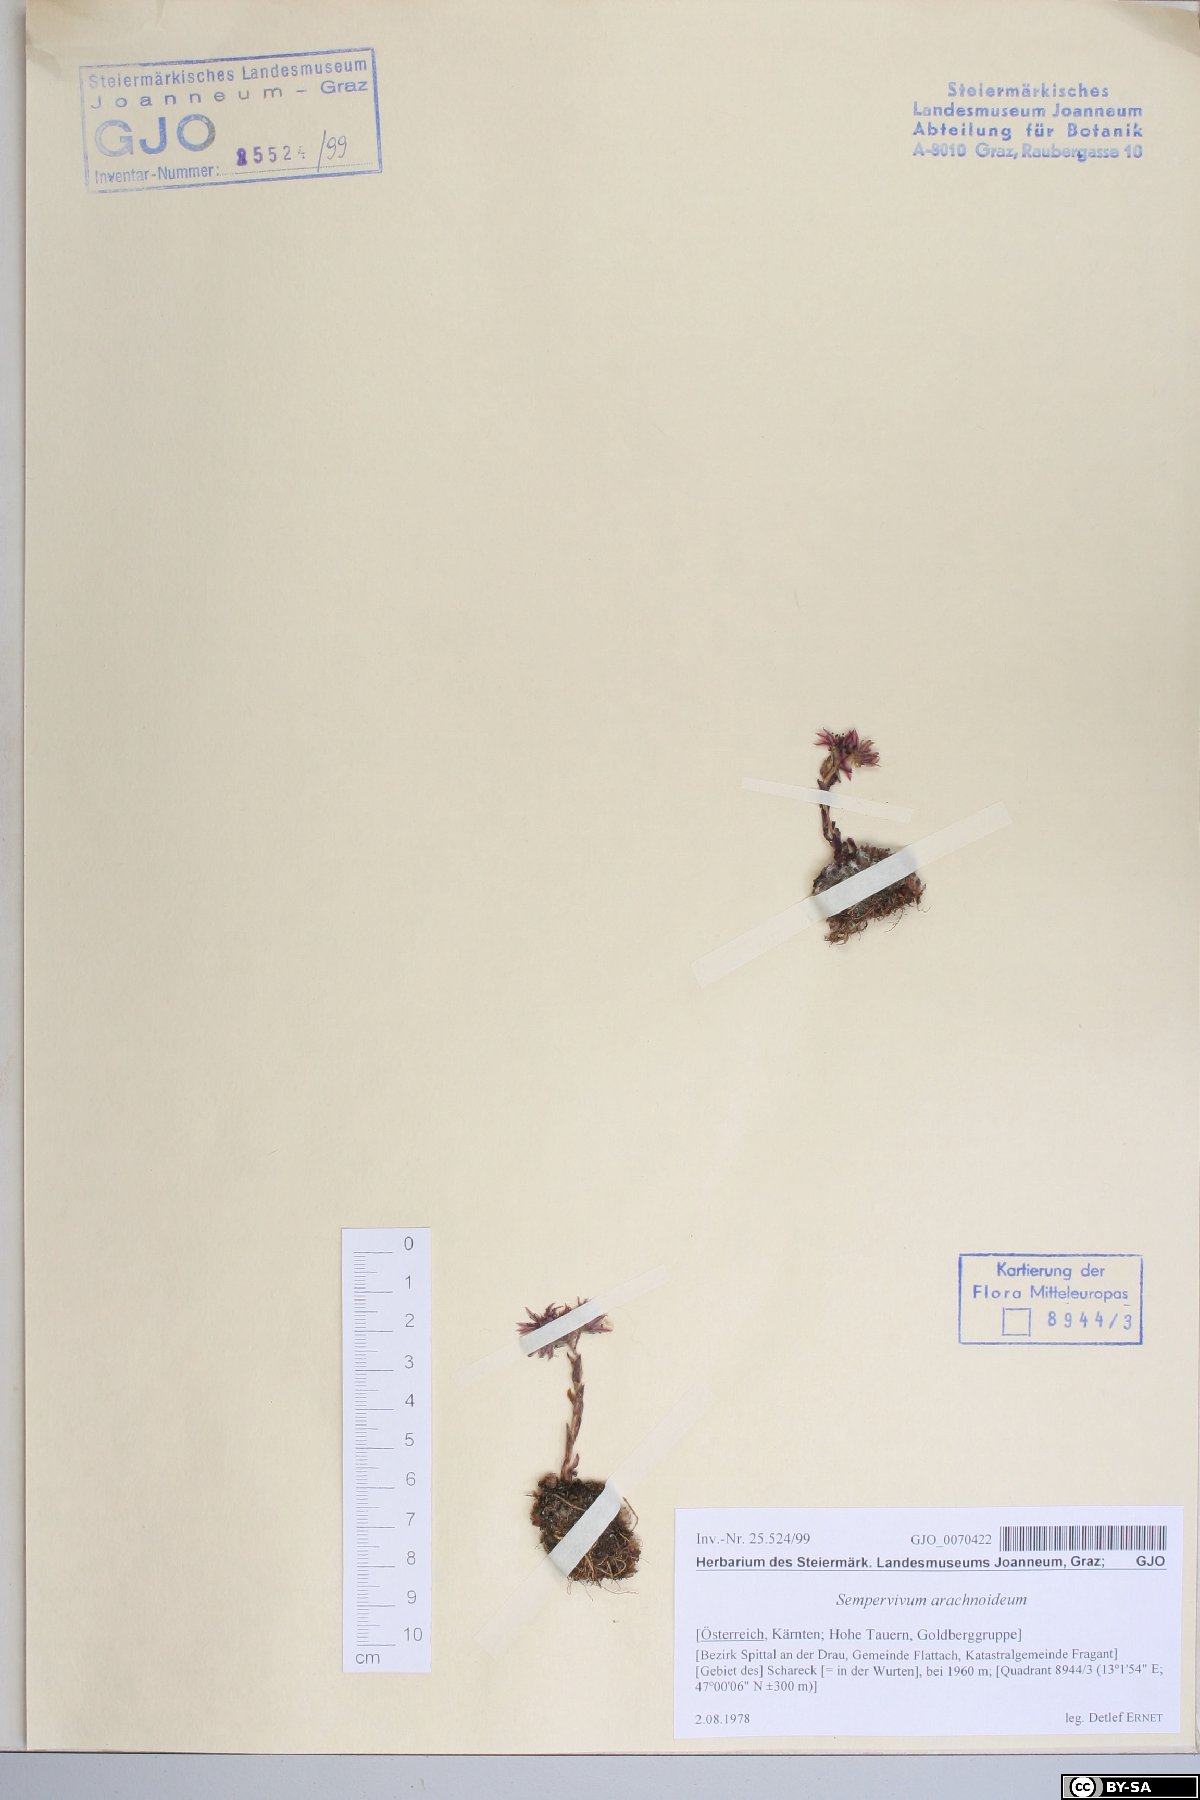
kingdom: Plantae
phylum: Tracheophyta
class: Magnoliopsida
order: Saxifragales
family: Crassulaceae
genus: Sempervivum
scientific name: Sempervivum arachnoideum
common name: Cobweb house-leek
